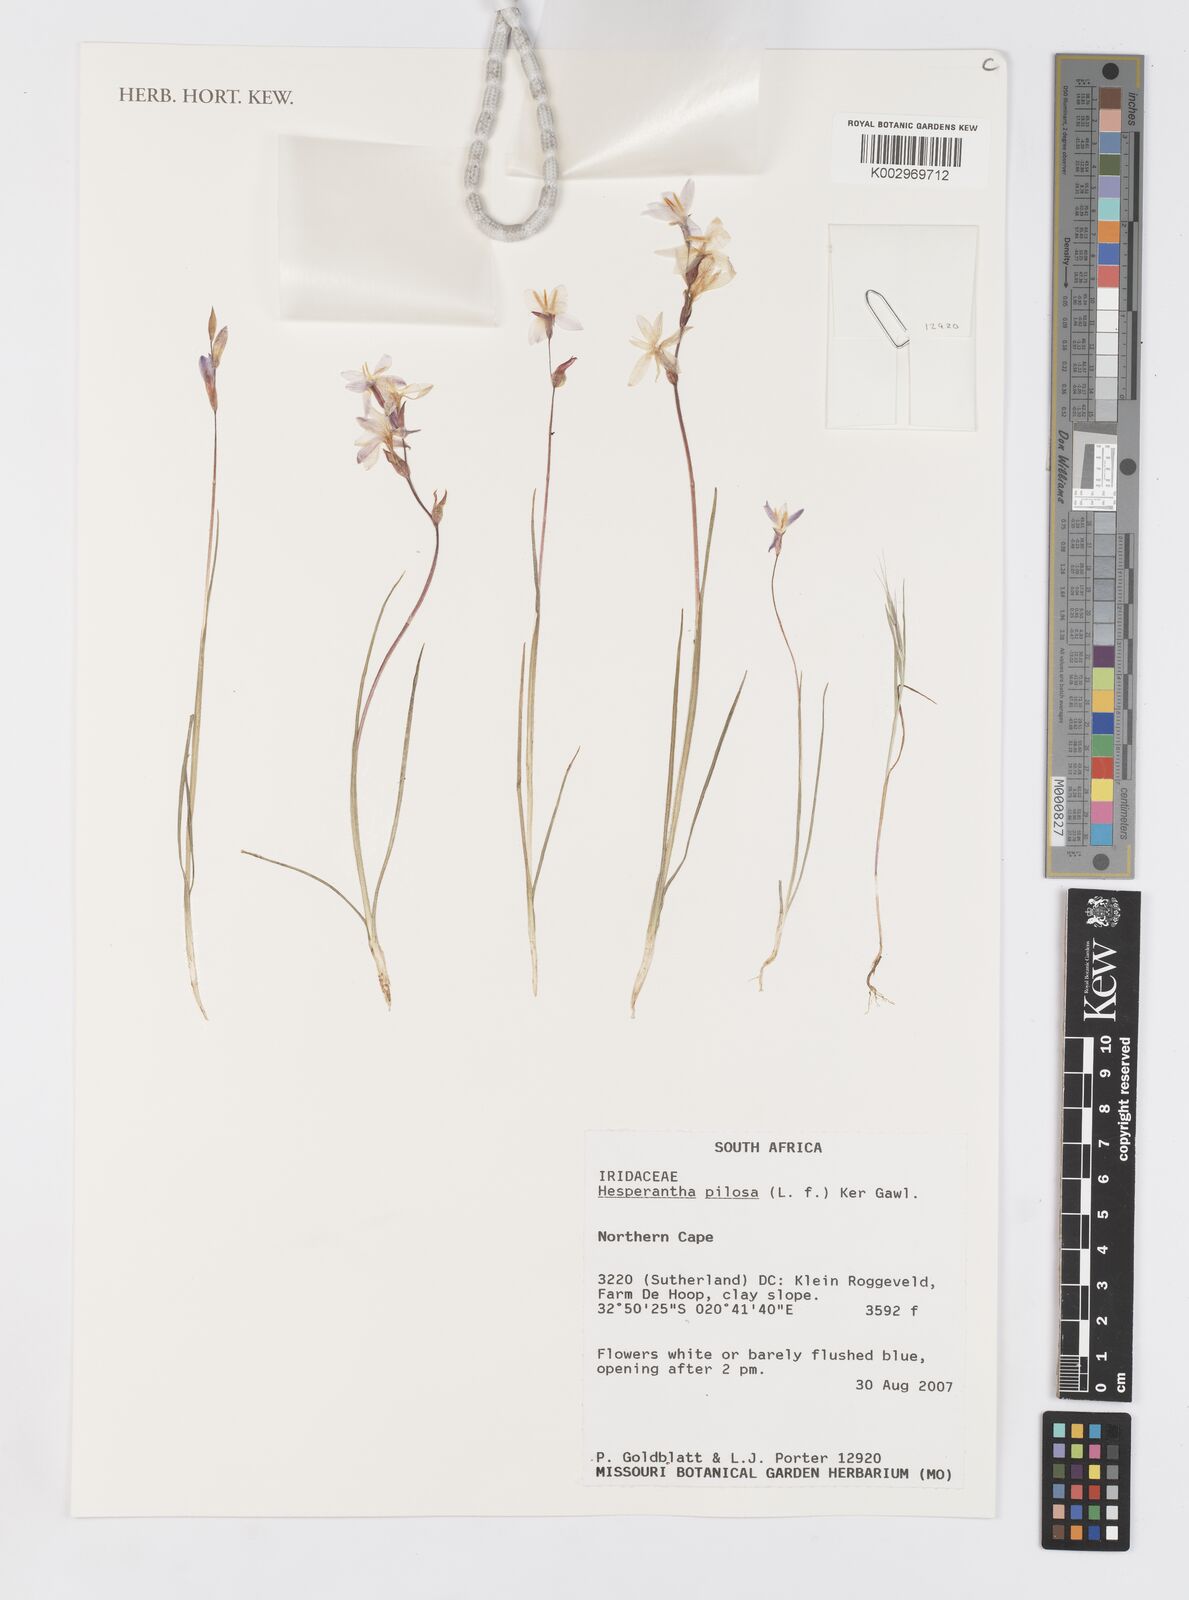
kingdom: Plantae
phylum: Tracheophyta
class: Liliopsida
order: Asparagales
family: Iridaceae
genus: Hesperantha
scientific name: Hesperantha pilosa
